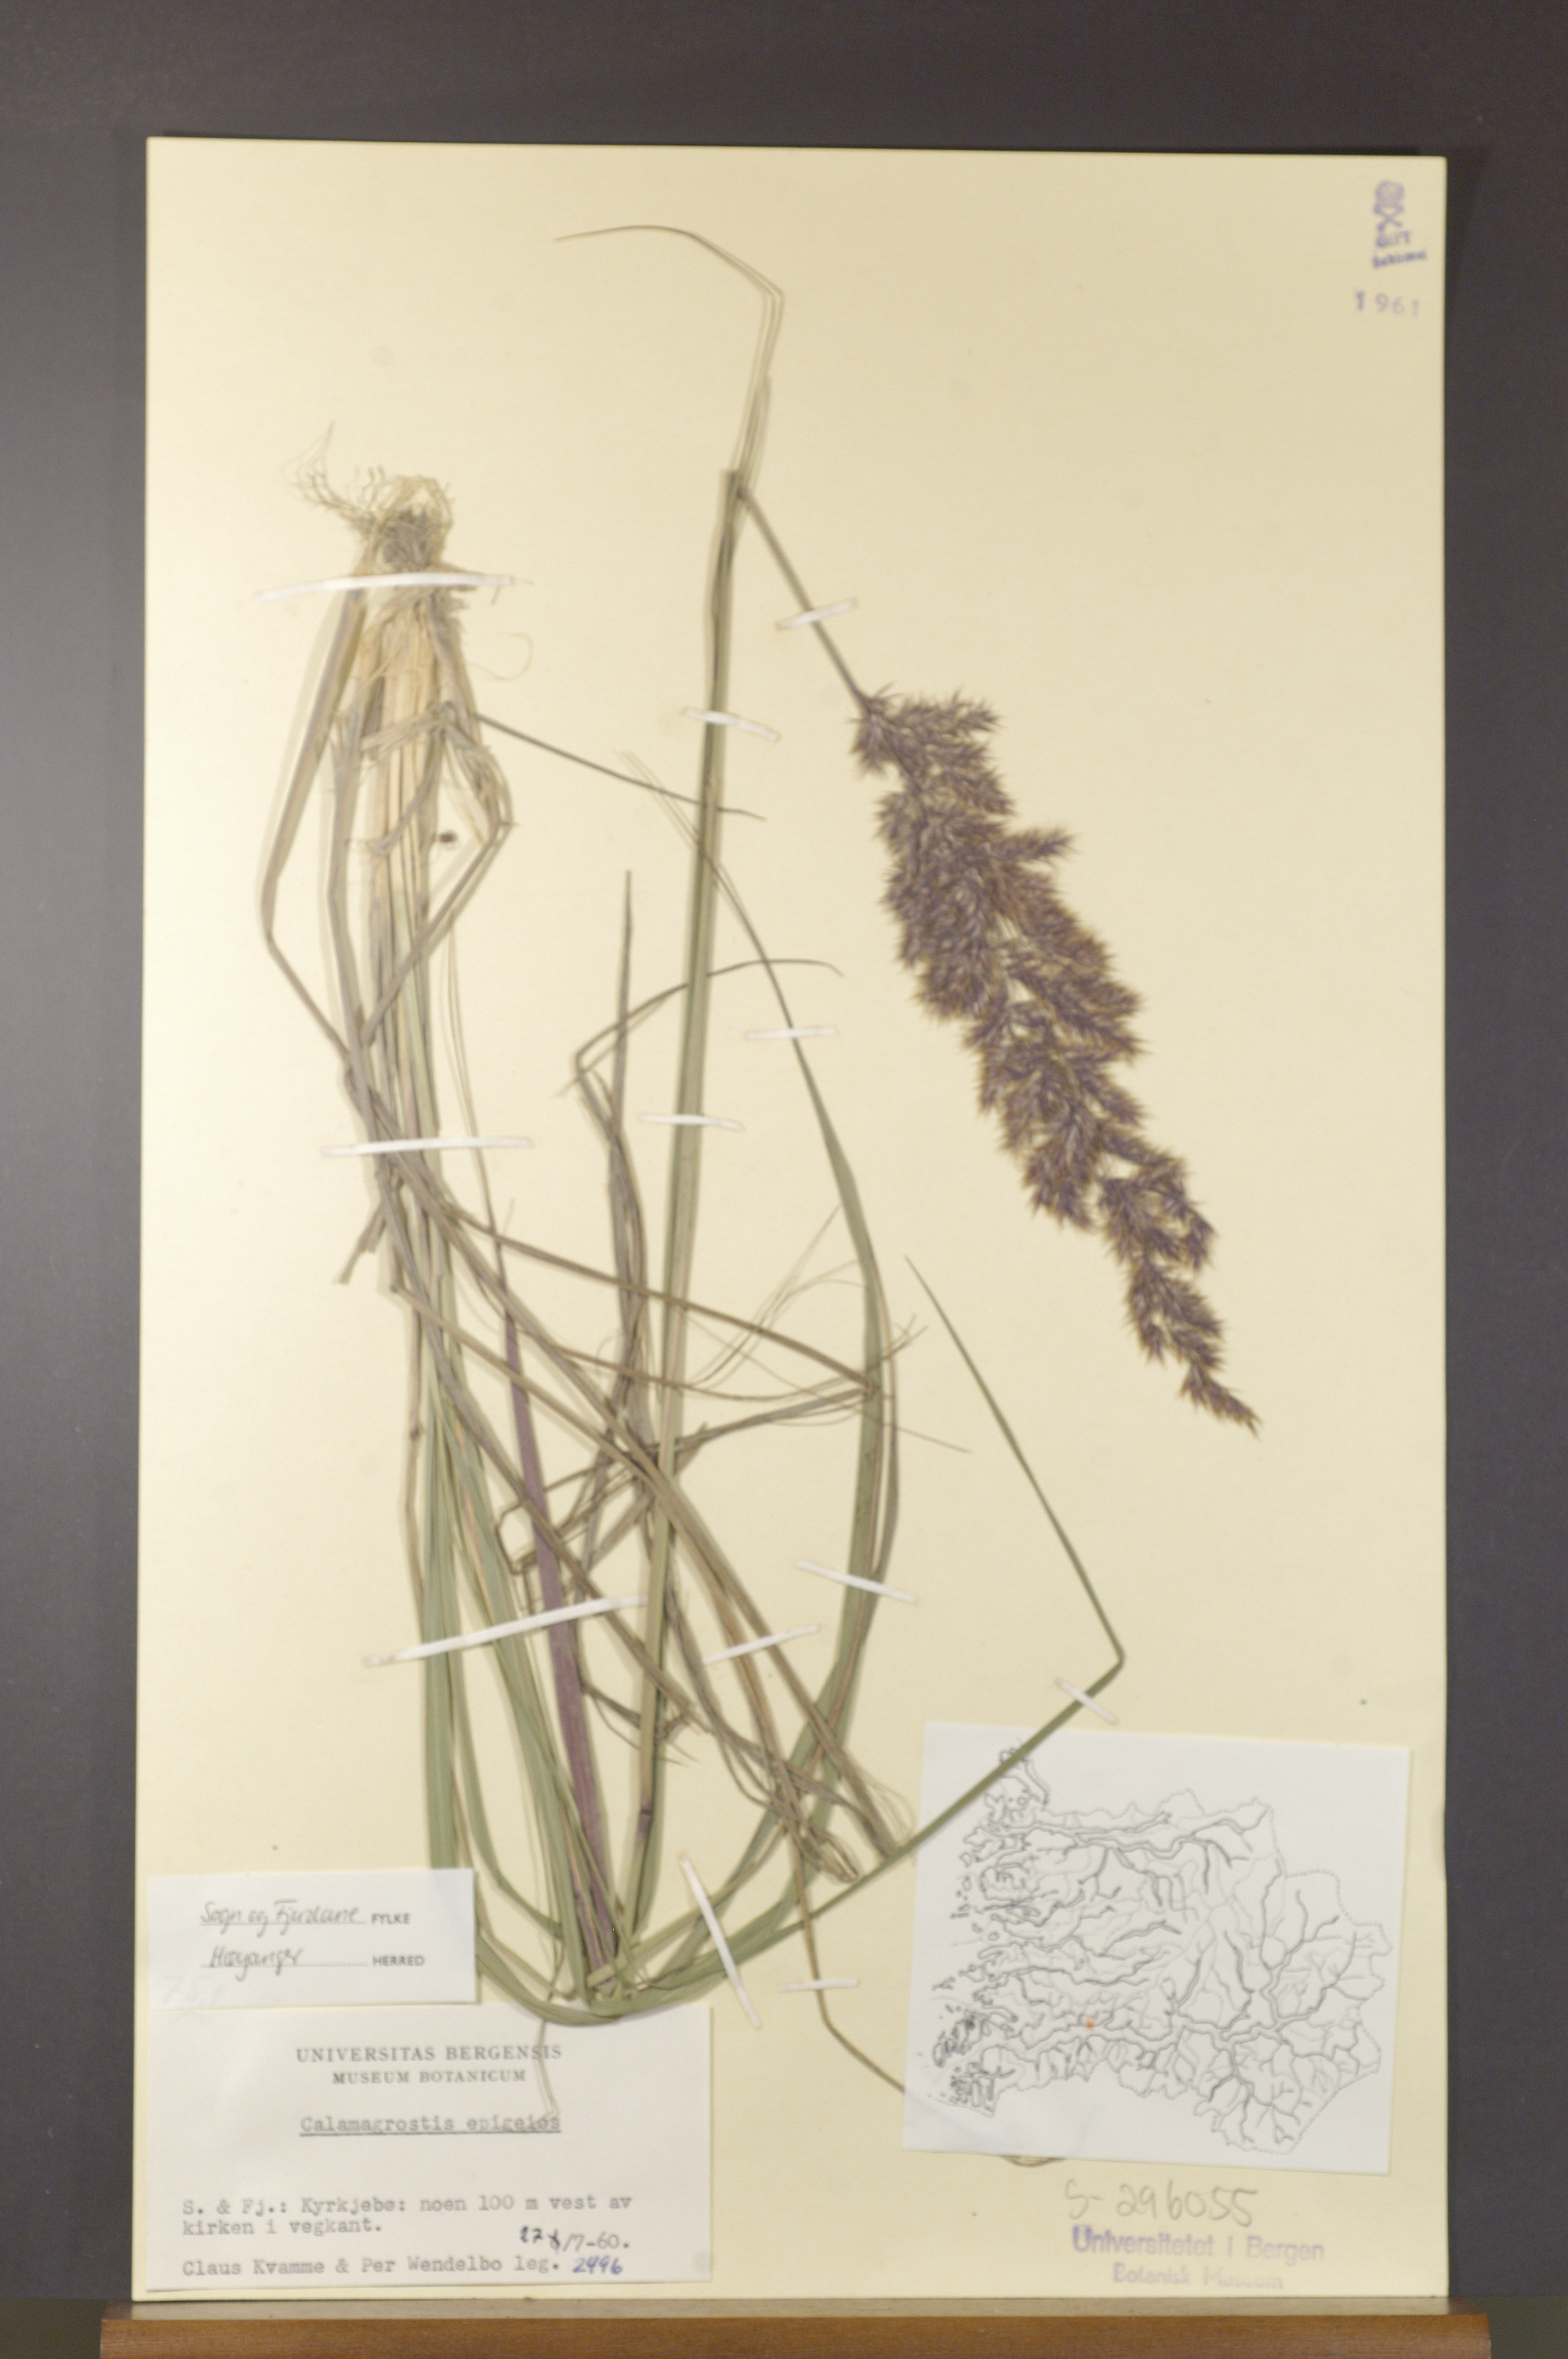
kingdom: Plantae
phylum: Tracheophyta
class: Liliopsida
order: Poales
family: Poaceae
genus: Calamagrostis
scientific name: Calamagrostis epigejos
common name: Wood small-reed
